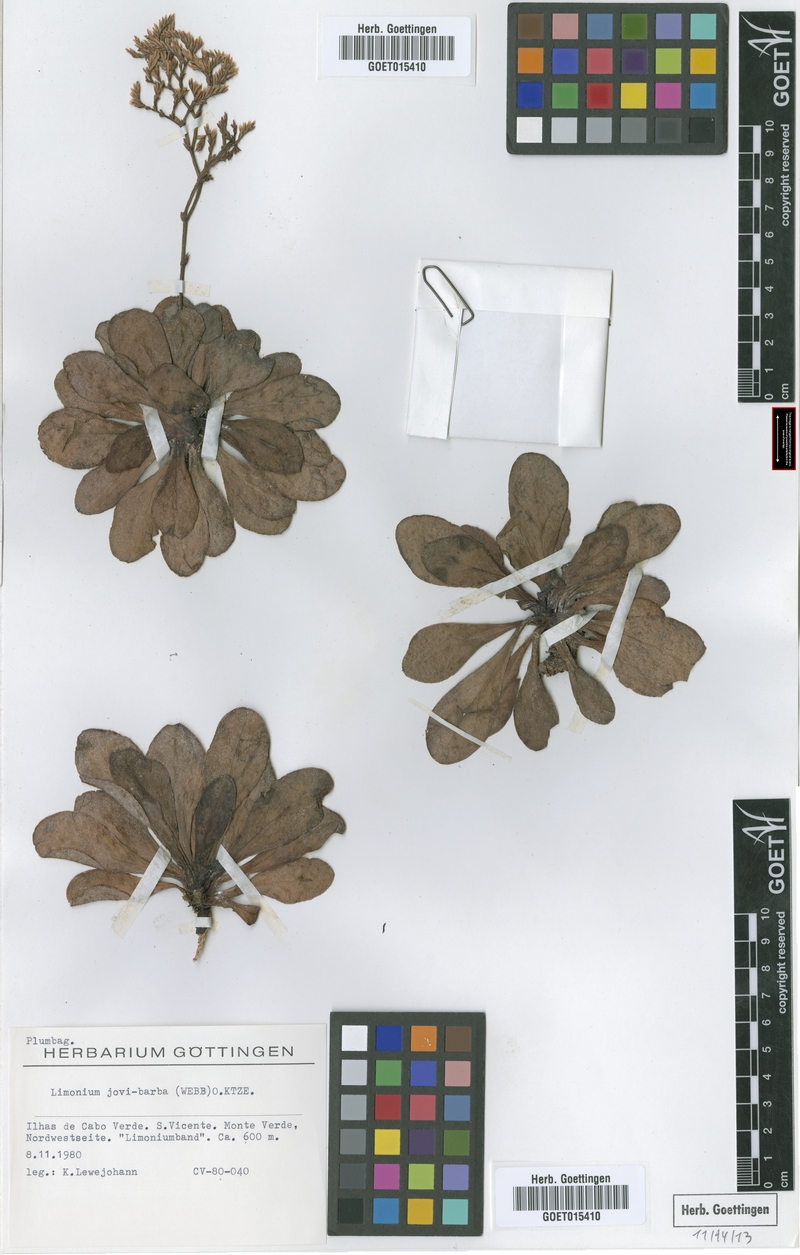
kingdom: Plantae
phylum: Tracheophyta
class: Magnoliopsida
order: Caryophyllales
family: Plumbaginaceae
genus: Limonium
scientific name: Limonium jovibarba
